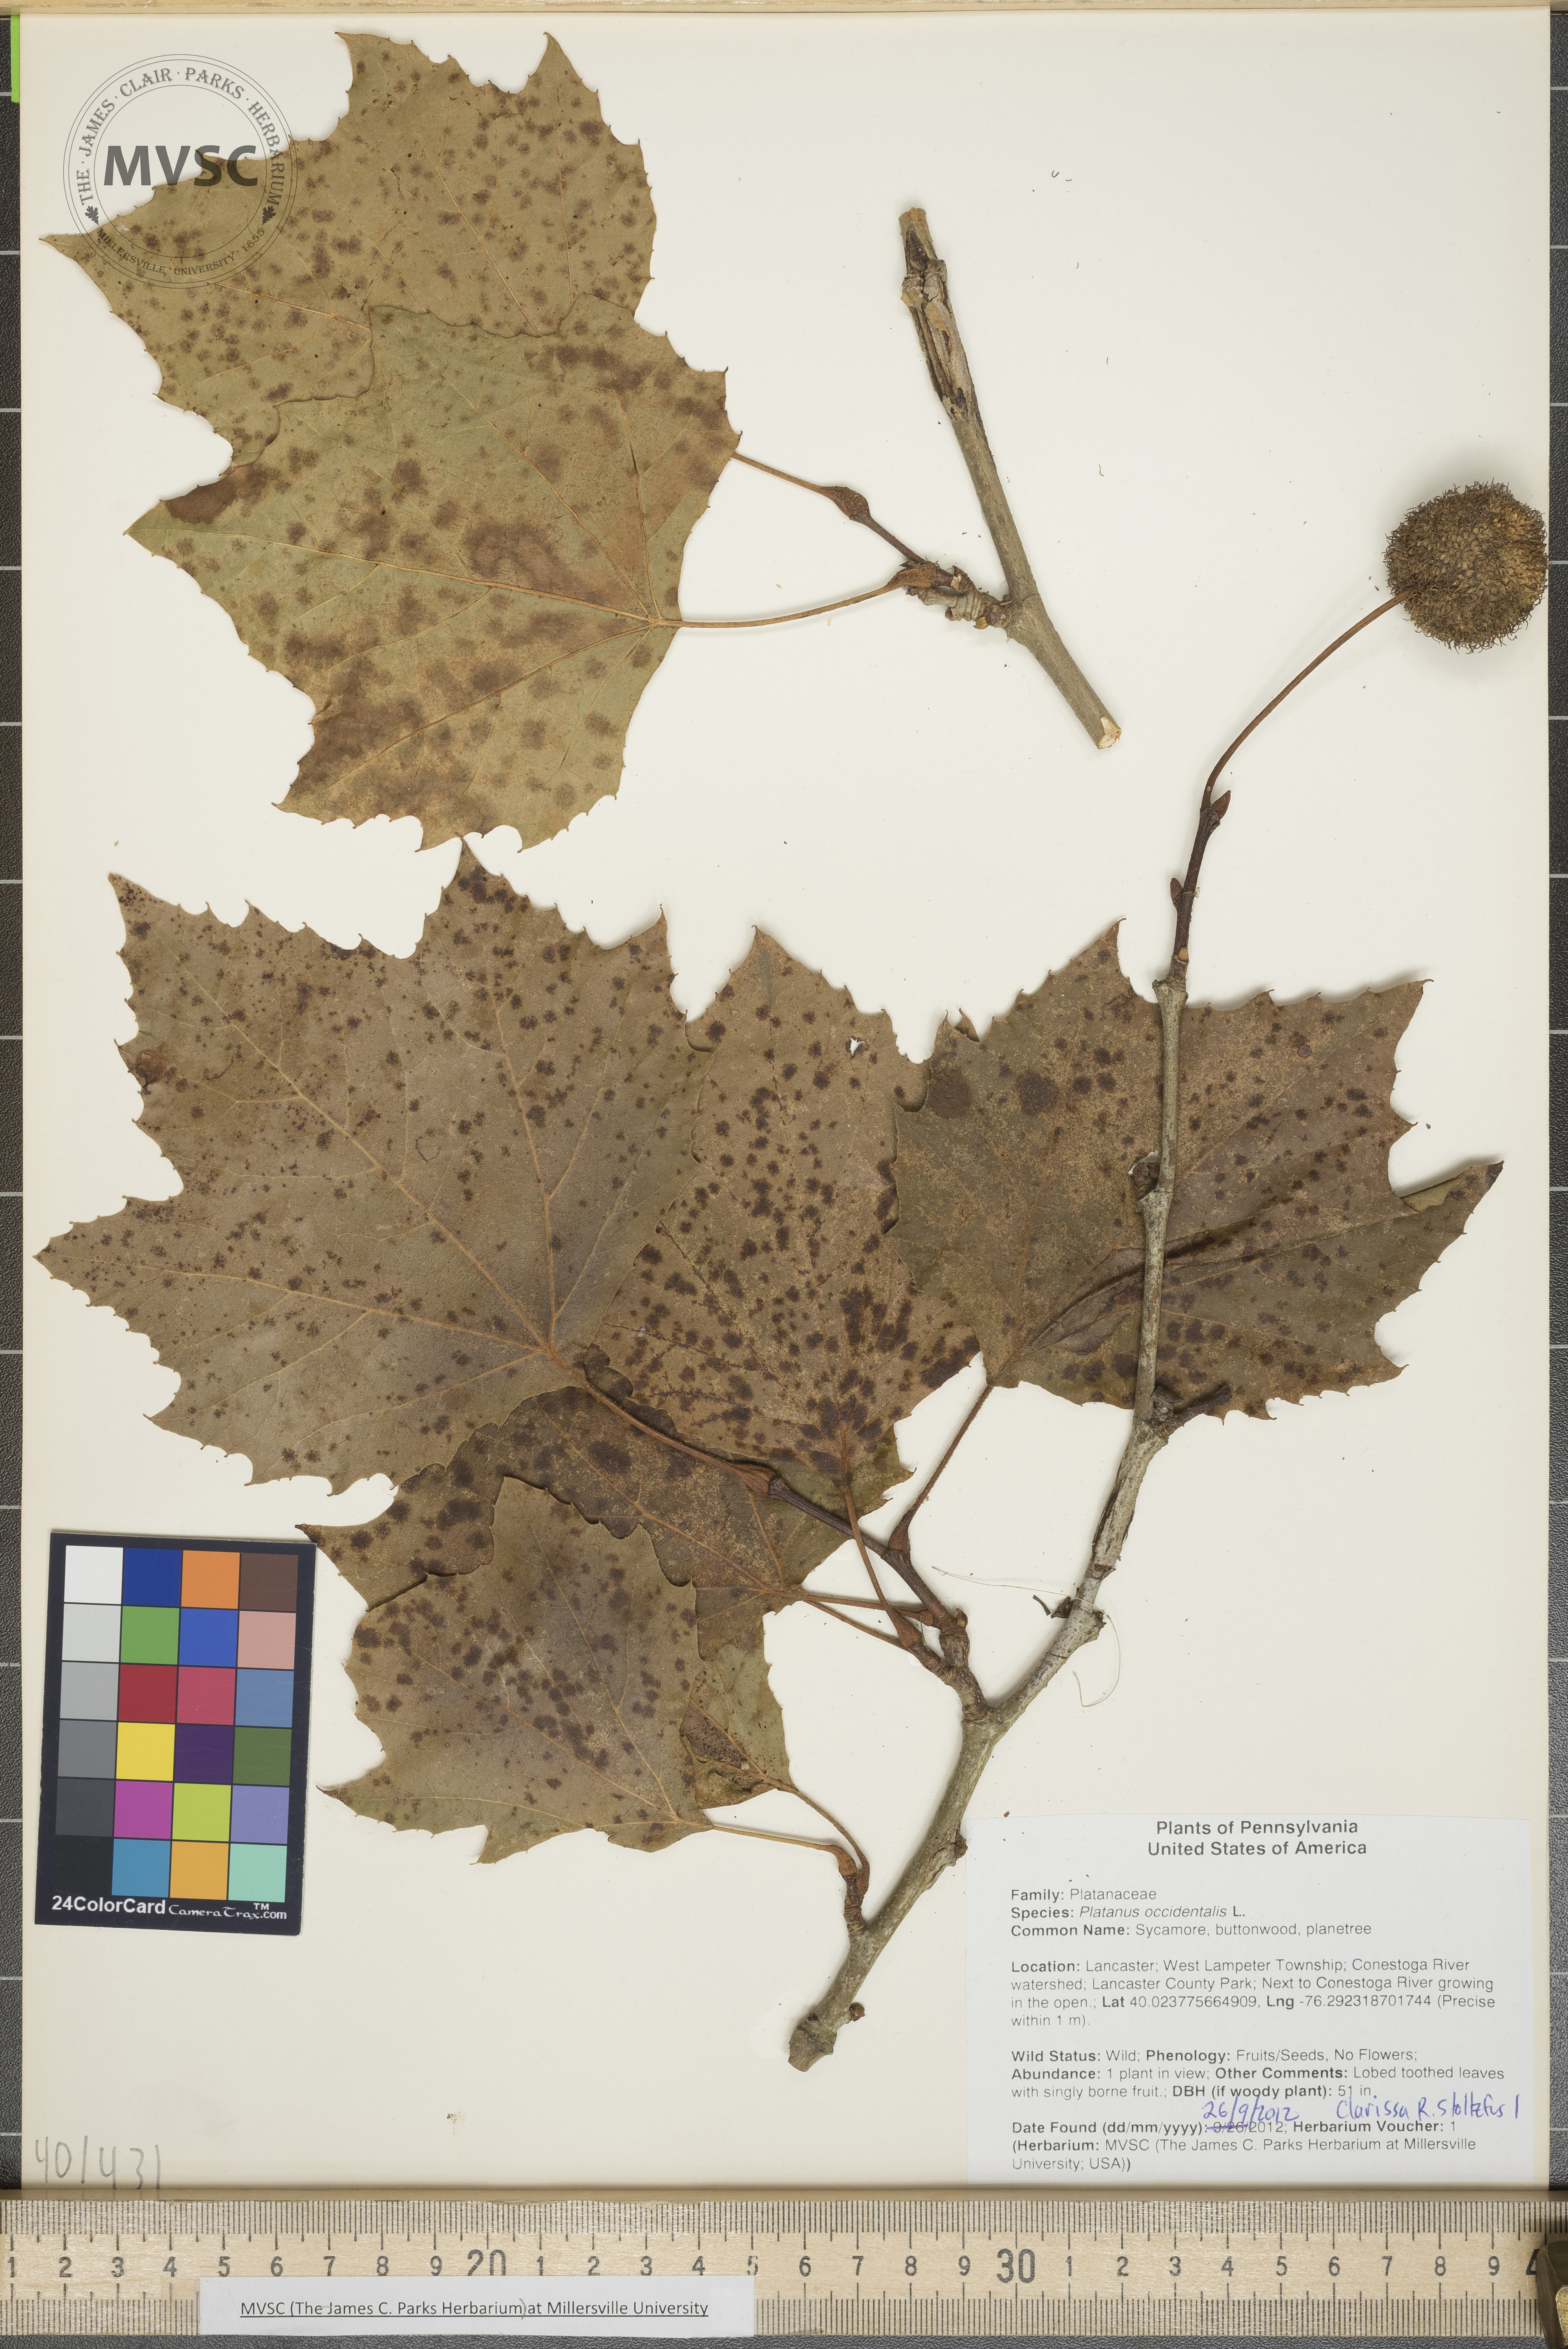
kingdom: Plantae
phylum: Tracheophyta
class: Magnoliopsida
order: Proteales
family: Platanaceae
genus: Platanus
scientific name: Platanus occidentalis
